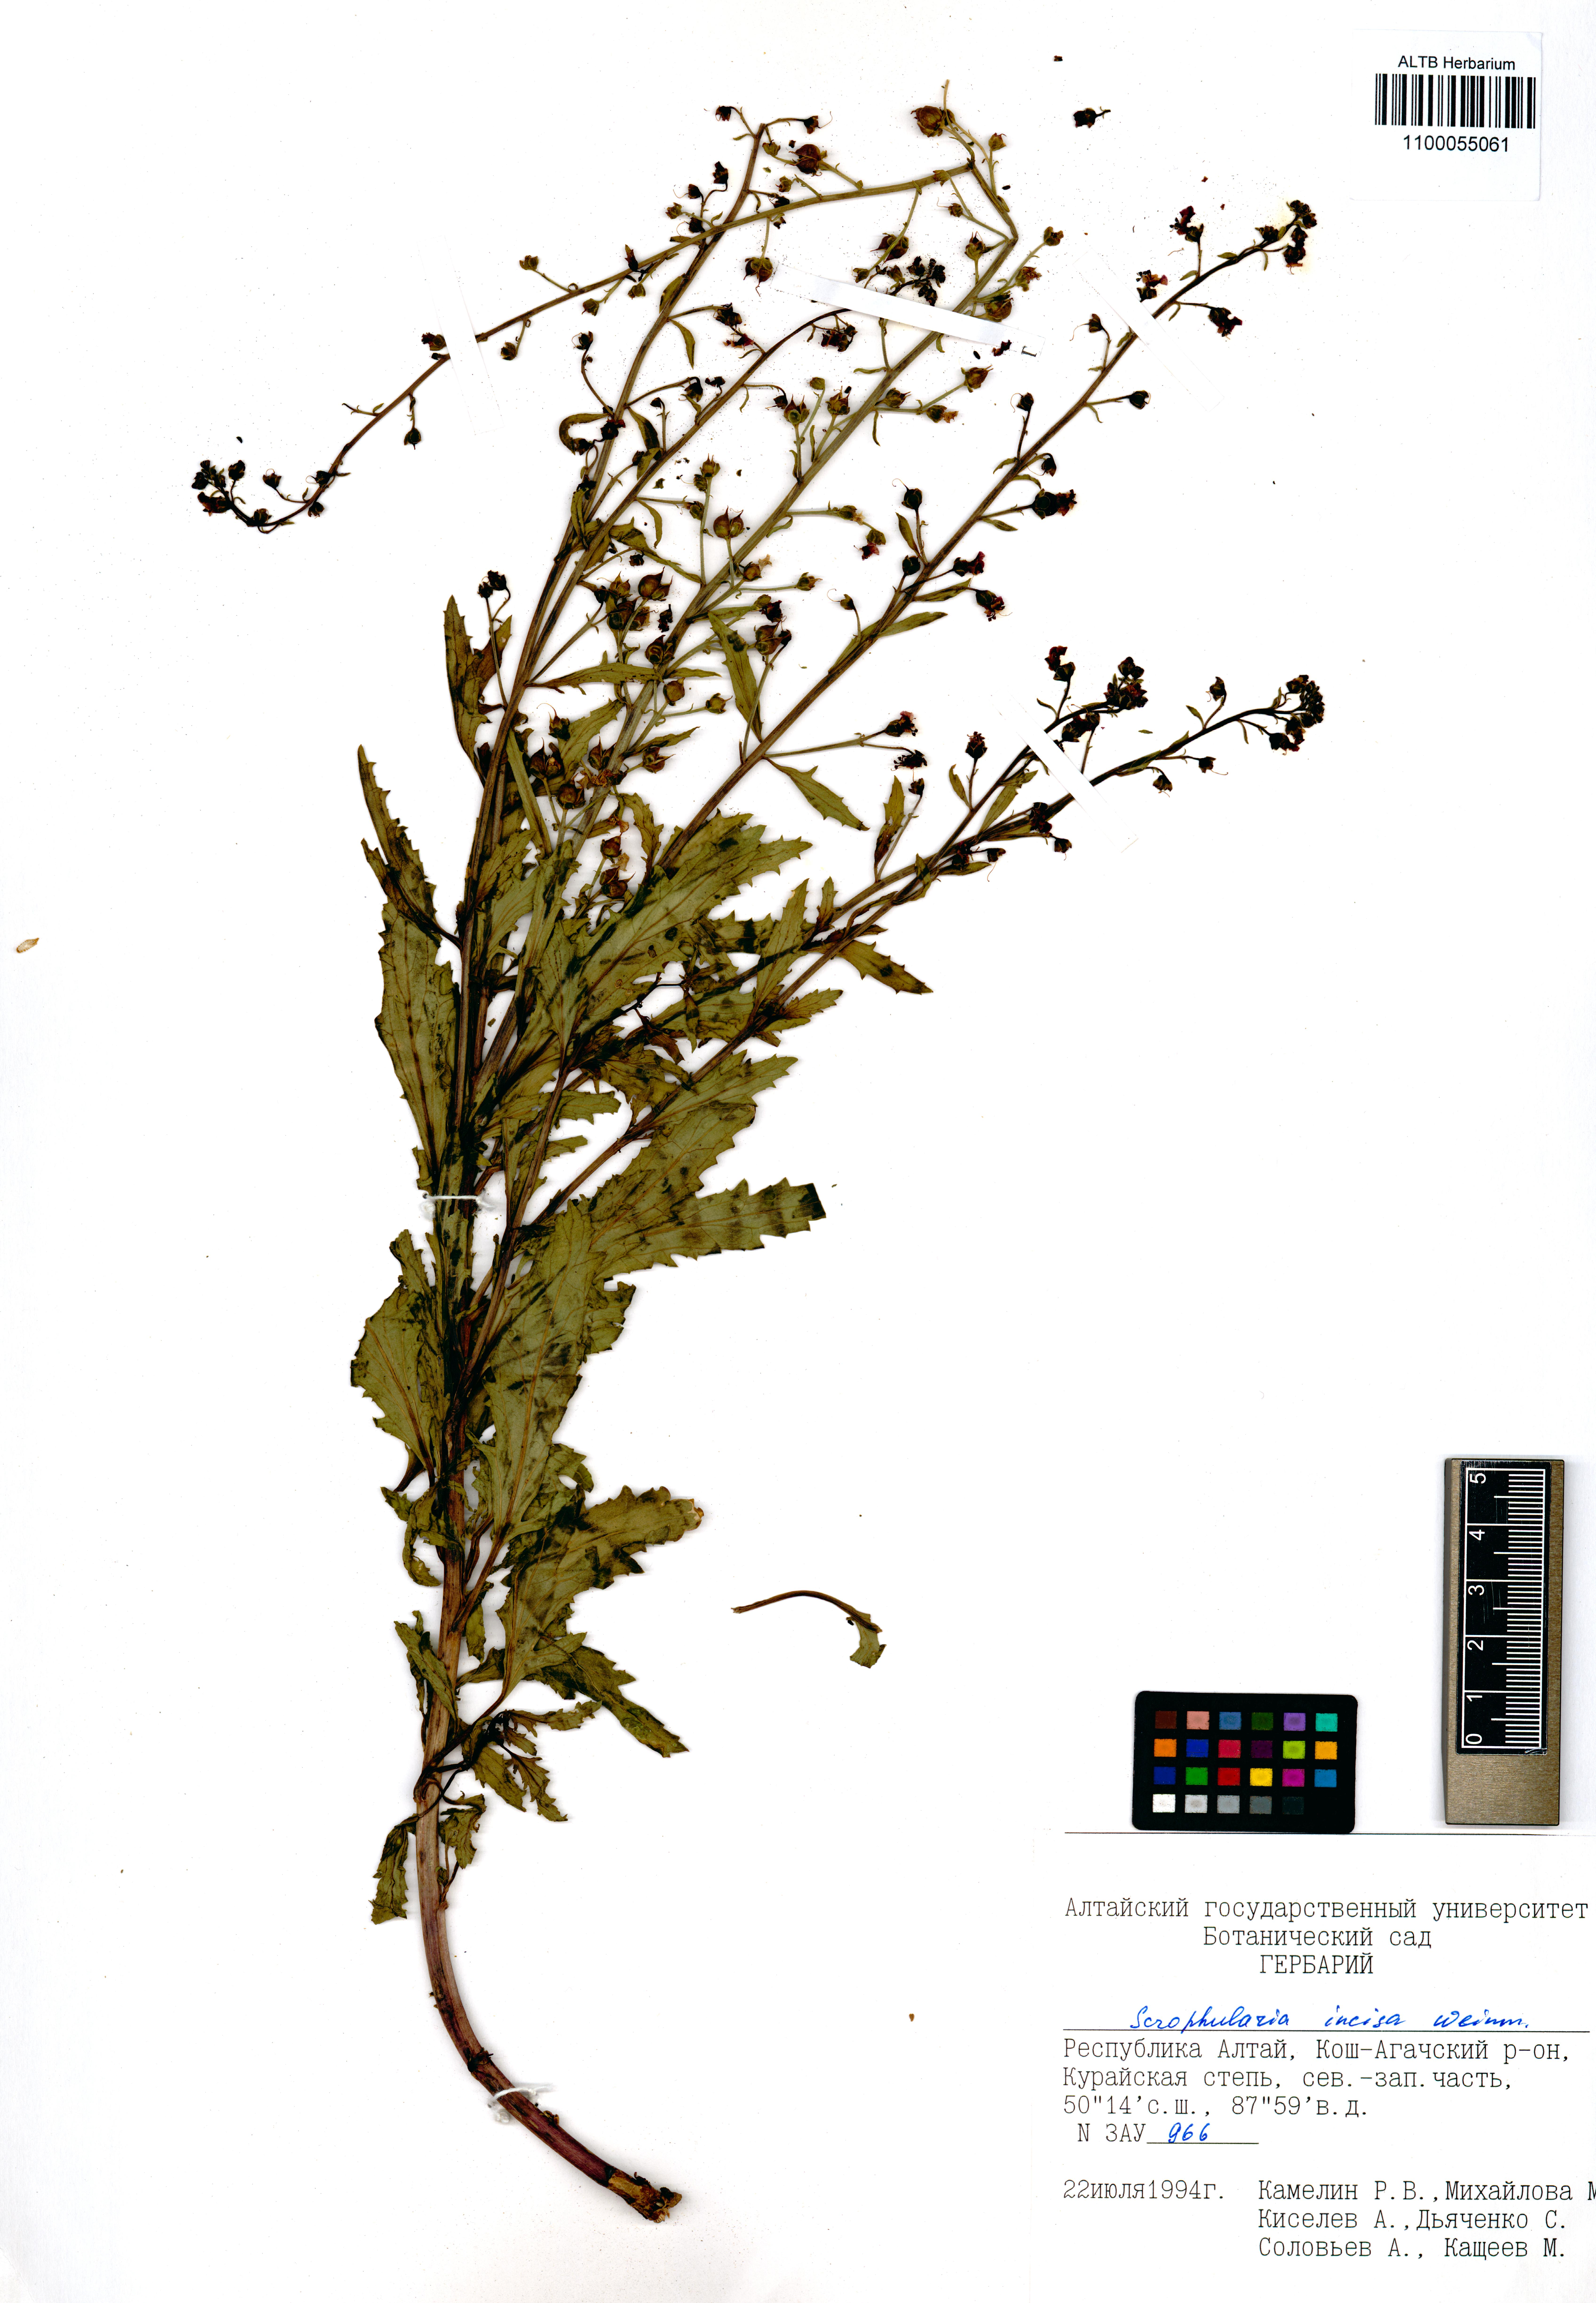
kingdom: Plantae
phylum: Tracheophyta
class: Magnoliopsida
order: Lamiales
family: Scrophulariaceae
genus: Scrophularia
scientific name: Scrophularia incisa
